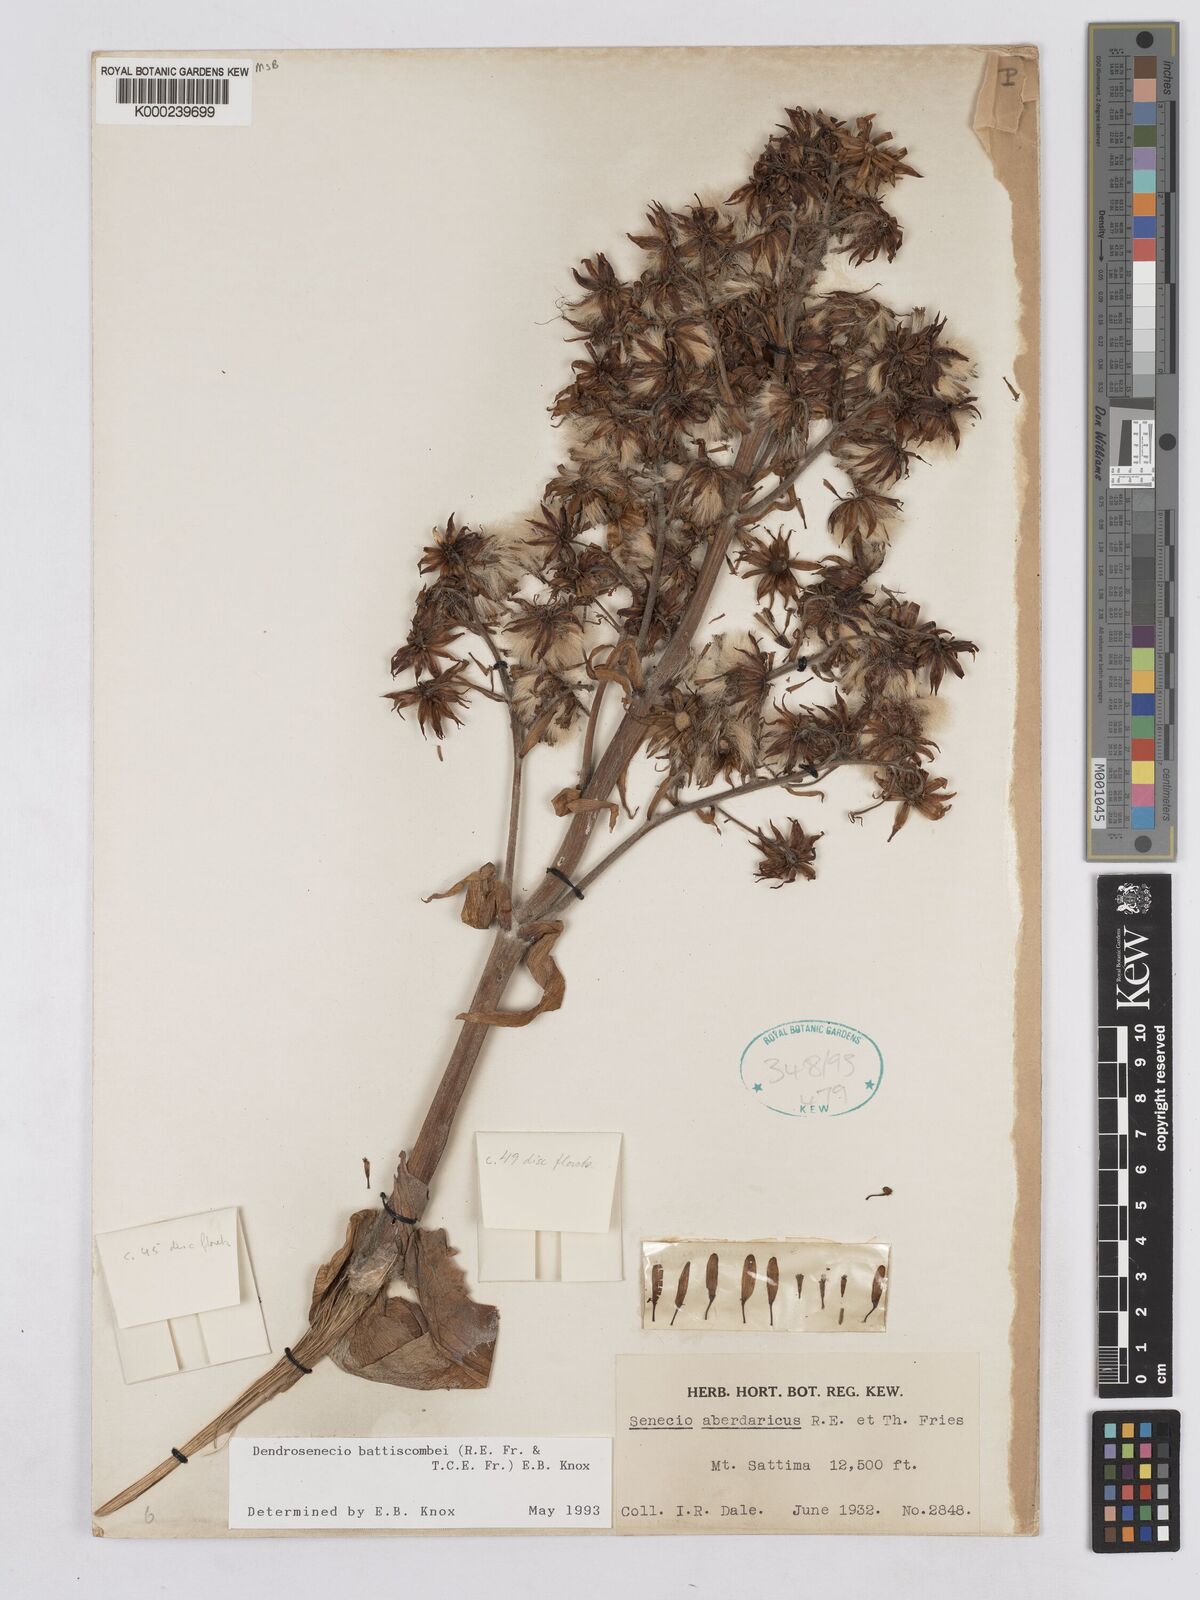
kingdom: Plantae
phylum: Tracheophyta
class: Magnoliopsida
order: Asterales
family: Asteraceae
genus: Dendrosenecio
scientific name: Dendrosenecio battiscombei
